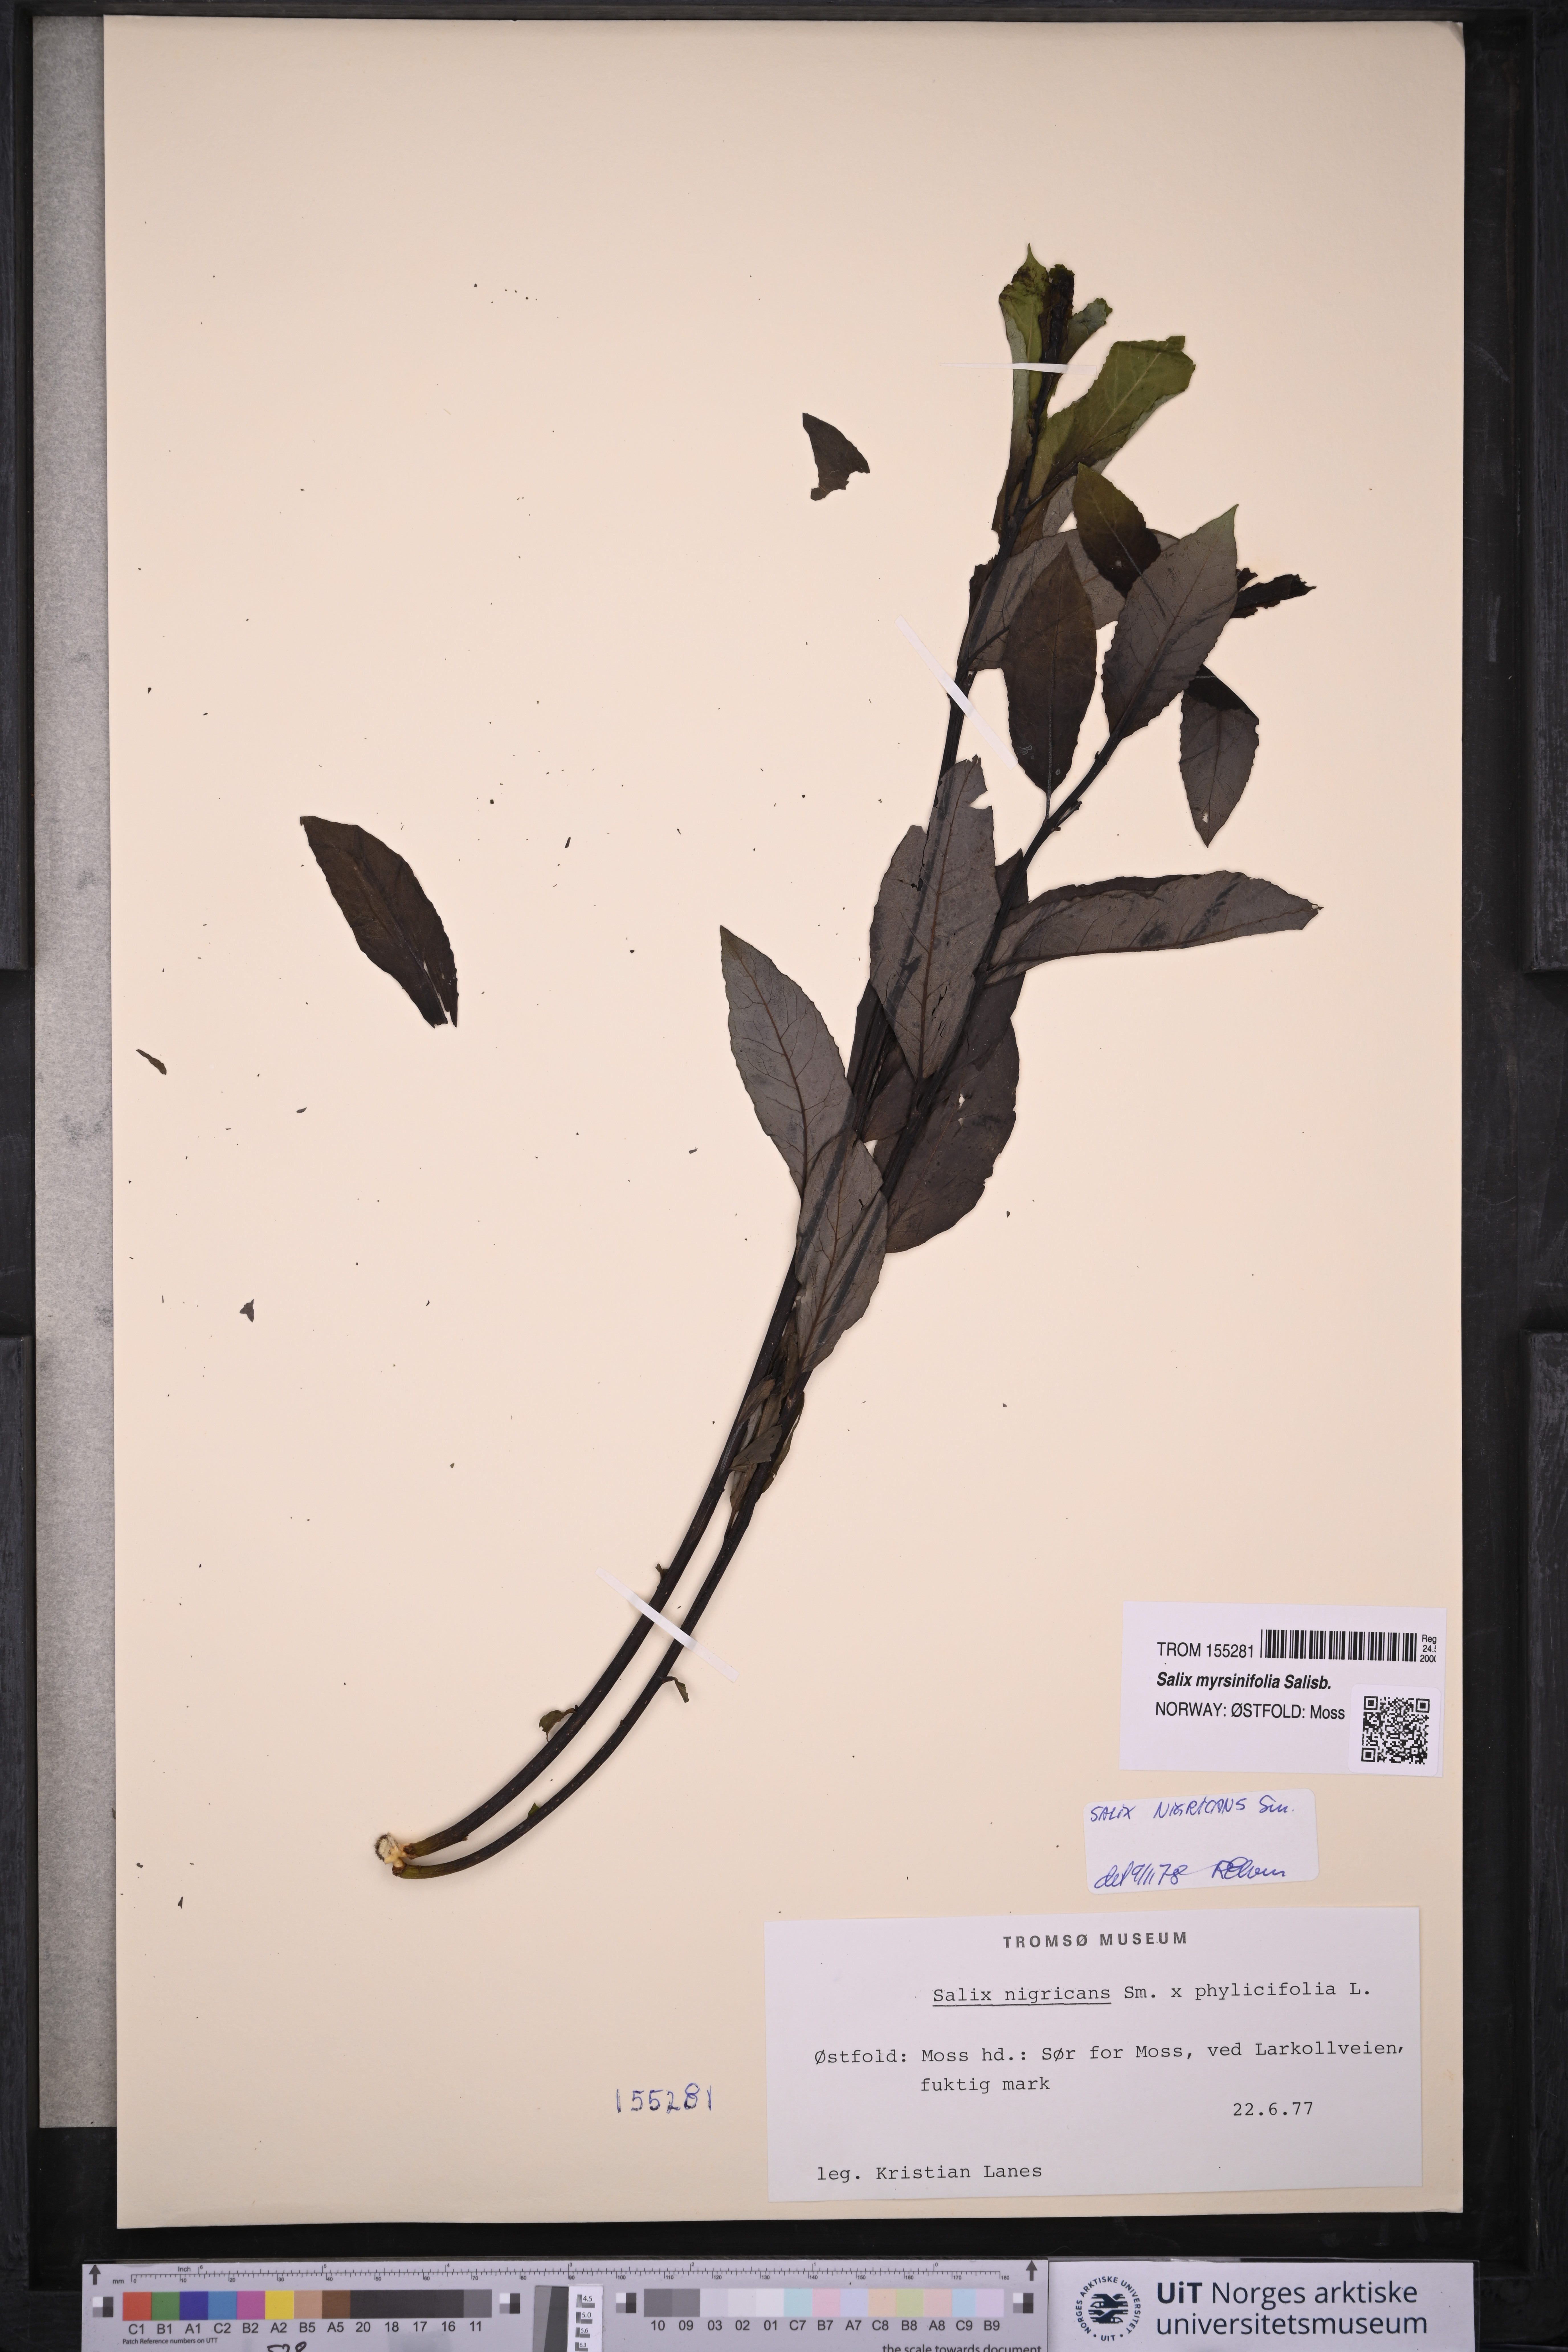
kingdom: Plantae
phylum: Tracheophyta
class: Magnoliopsida
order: Malpighiales
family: Salicaceae
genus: Salix
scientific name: Salix myrsinifolia
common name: Dark-leaved willow
